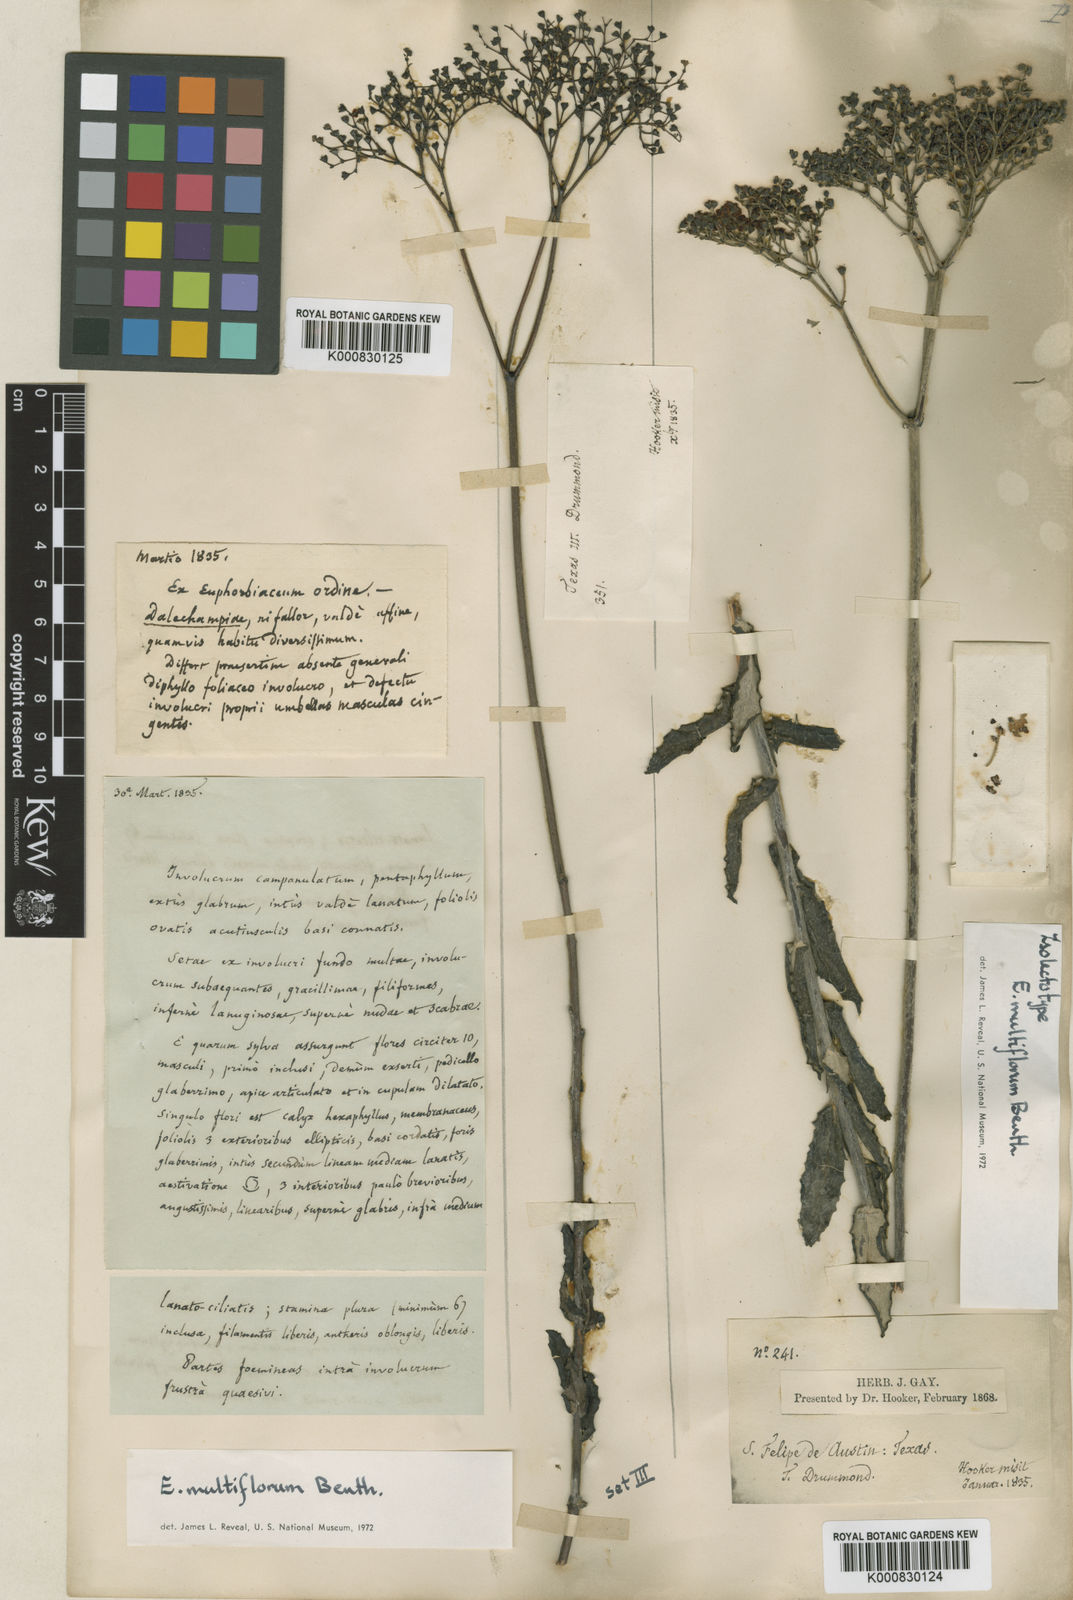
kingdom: Plantae
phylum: Tracheophyta
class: Magnoliopsida
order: Caryophyllales
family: Polygonaceae
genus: Eriogonum
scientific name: Eriogonum multiflorum
